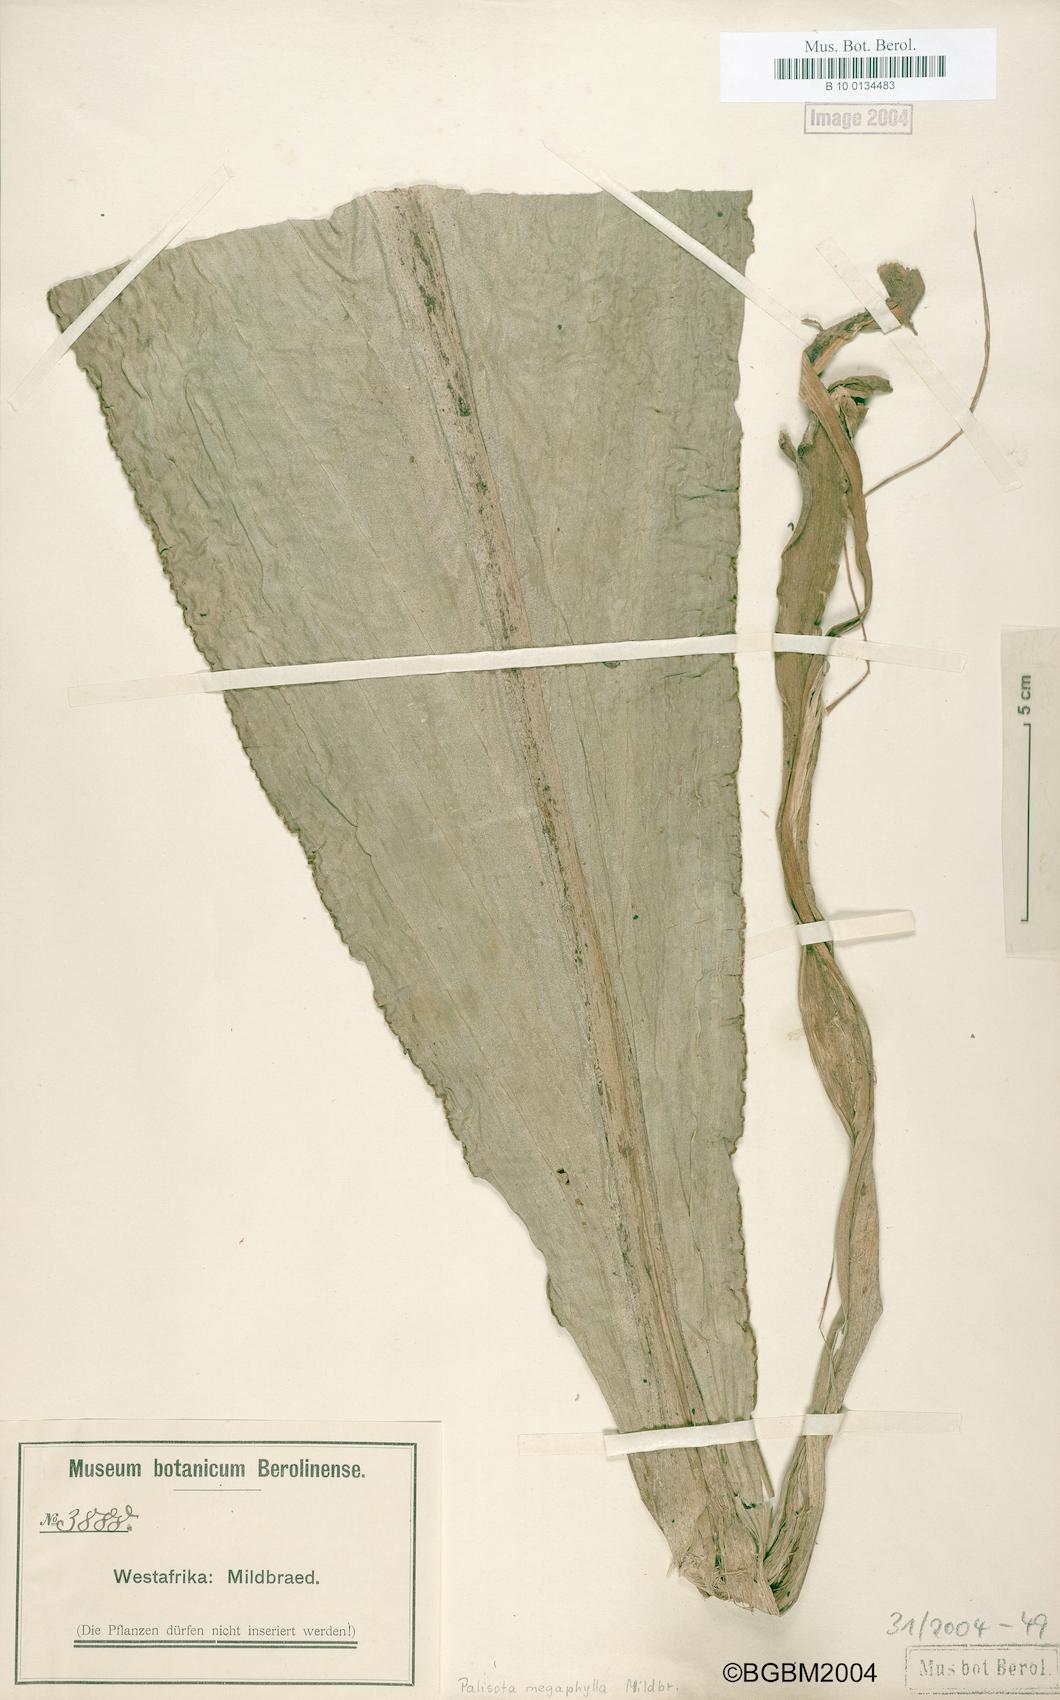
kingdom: Plantae
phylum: Tracheophyta
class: Liliopsida
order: Commelinales
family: Commelinaceae
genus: Palisota
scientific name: Palisota mannii
